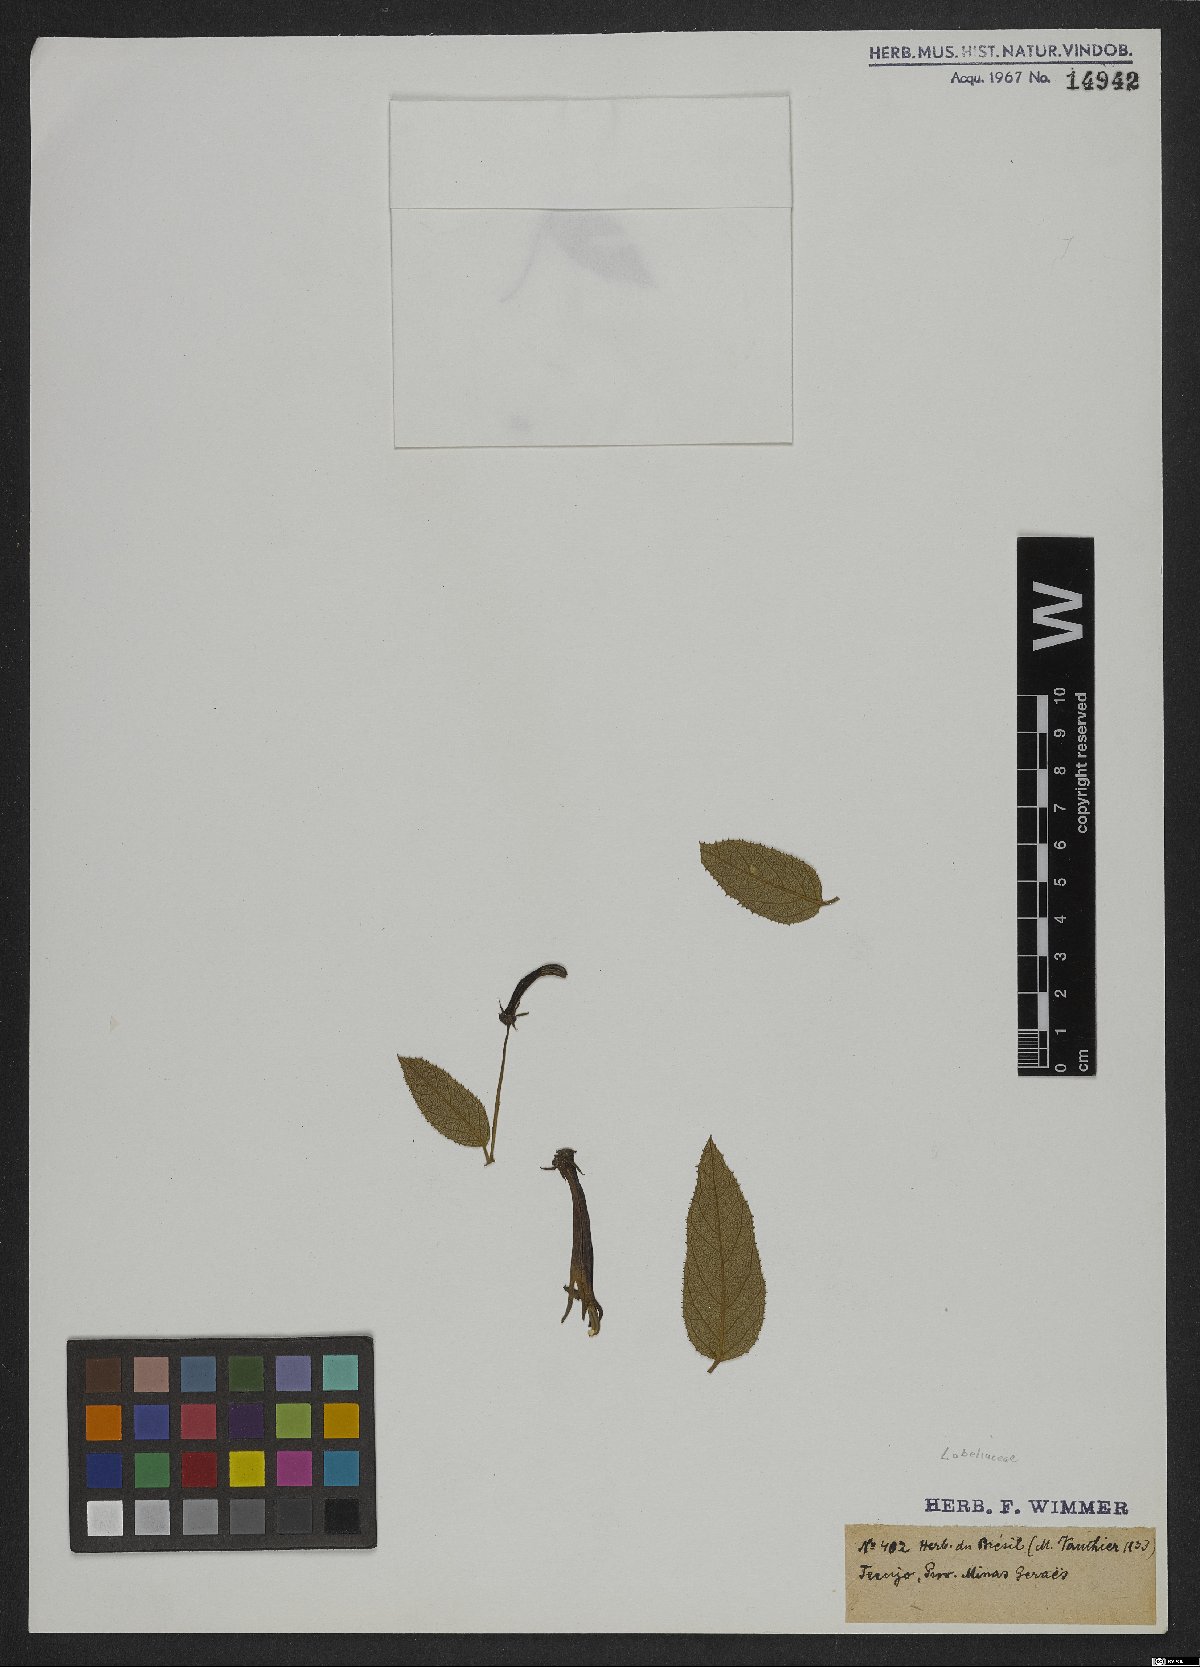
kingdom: Plantae
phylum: Tracheophyta
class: Magnoliopsida
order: Asterales
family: Campanulaceae
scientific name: Campanulaceae
